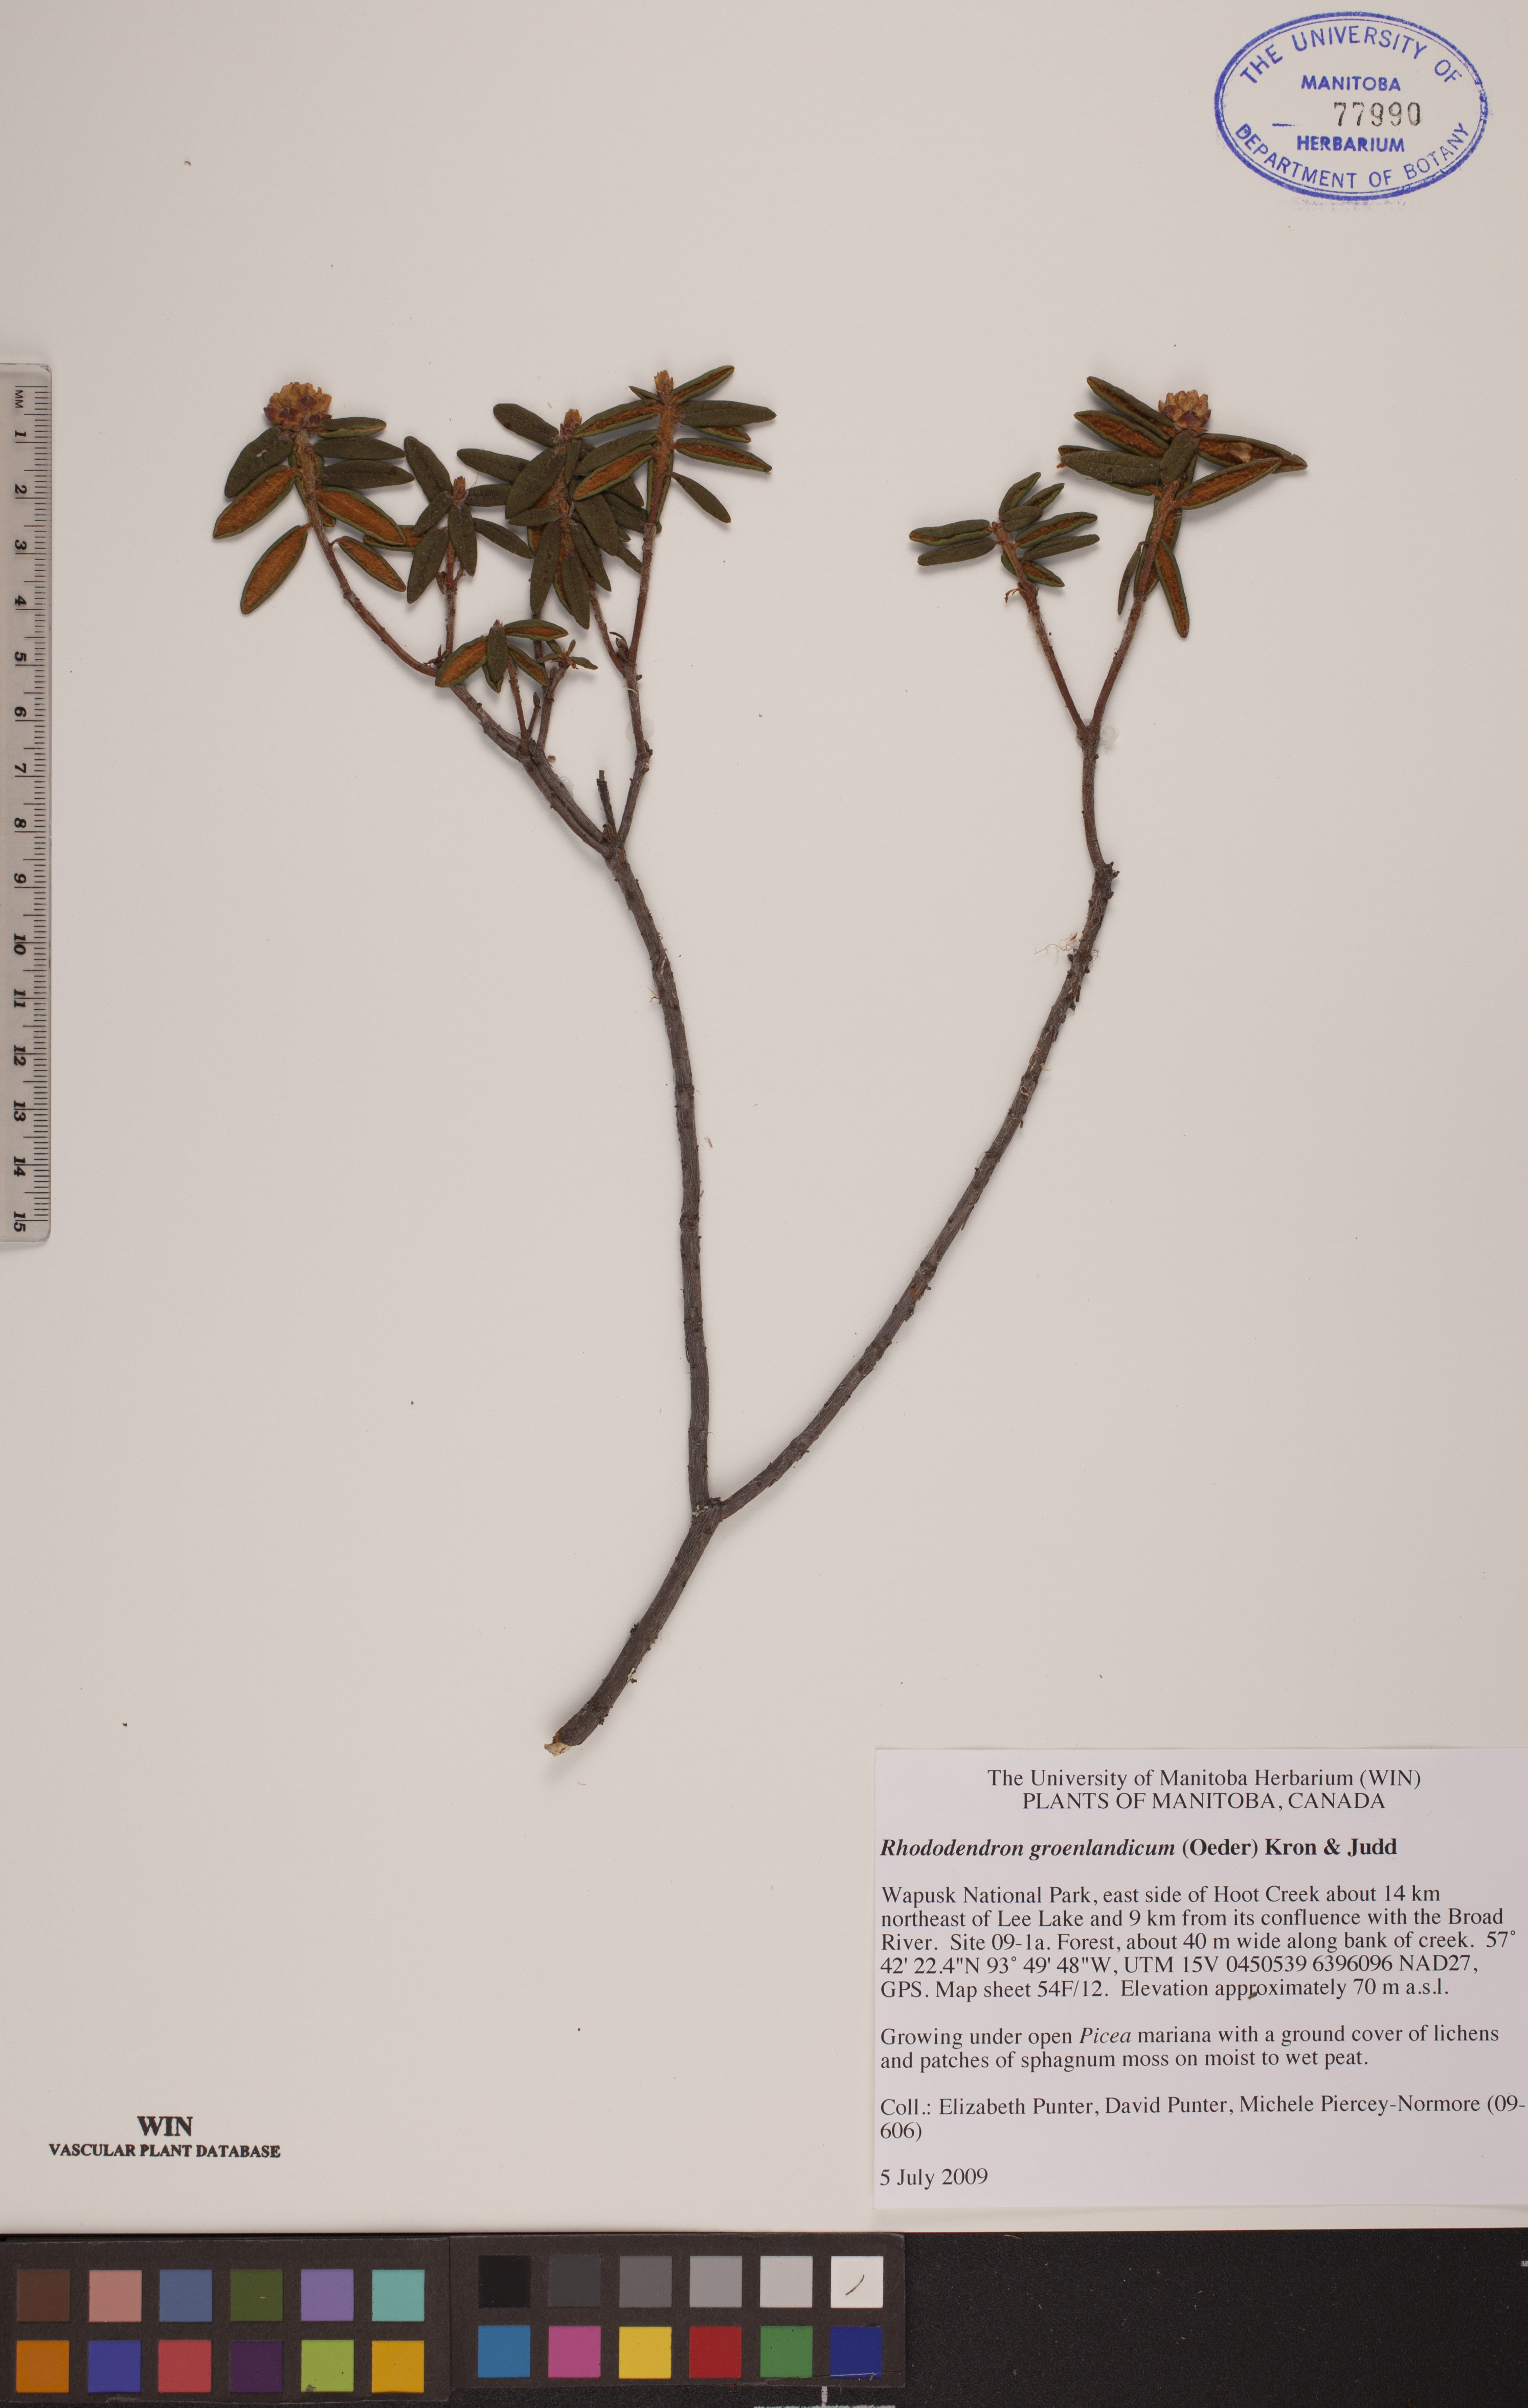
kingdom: Plantae
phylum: Tracheophyta
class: Magnoliopsida
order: Ericales
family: Ericaceae
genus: Rhododendron
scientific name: Rhododendron groenlandicum
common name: Bog labrador tea
